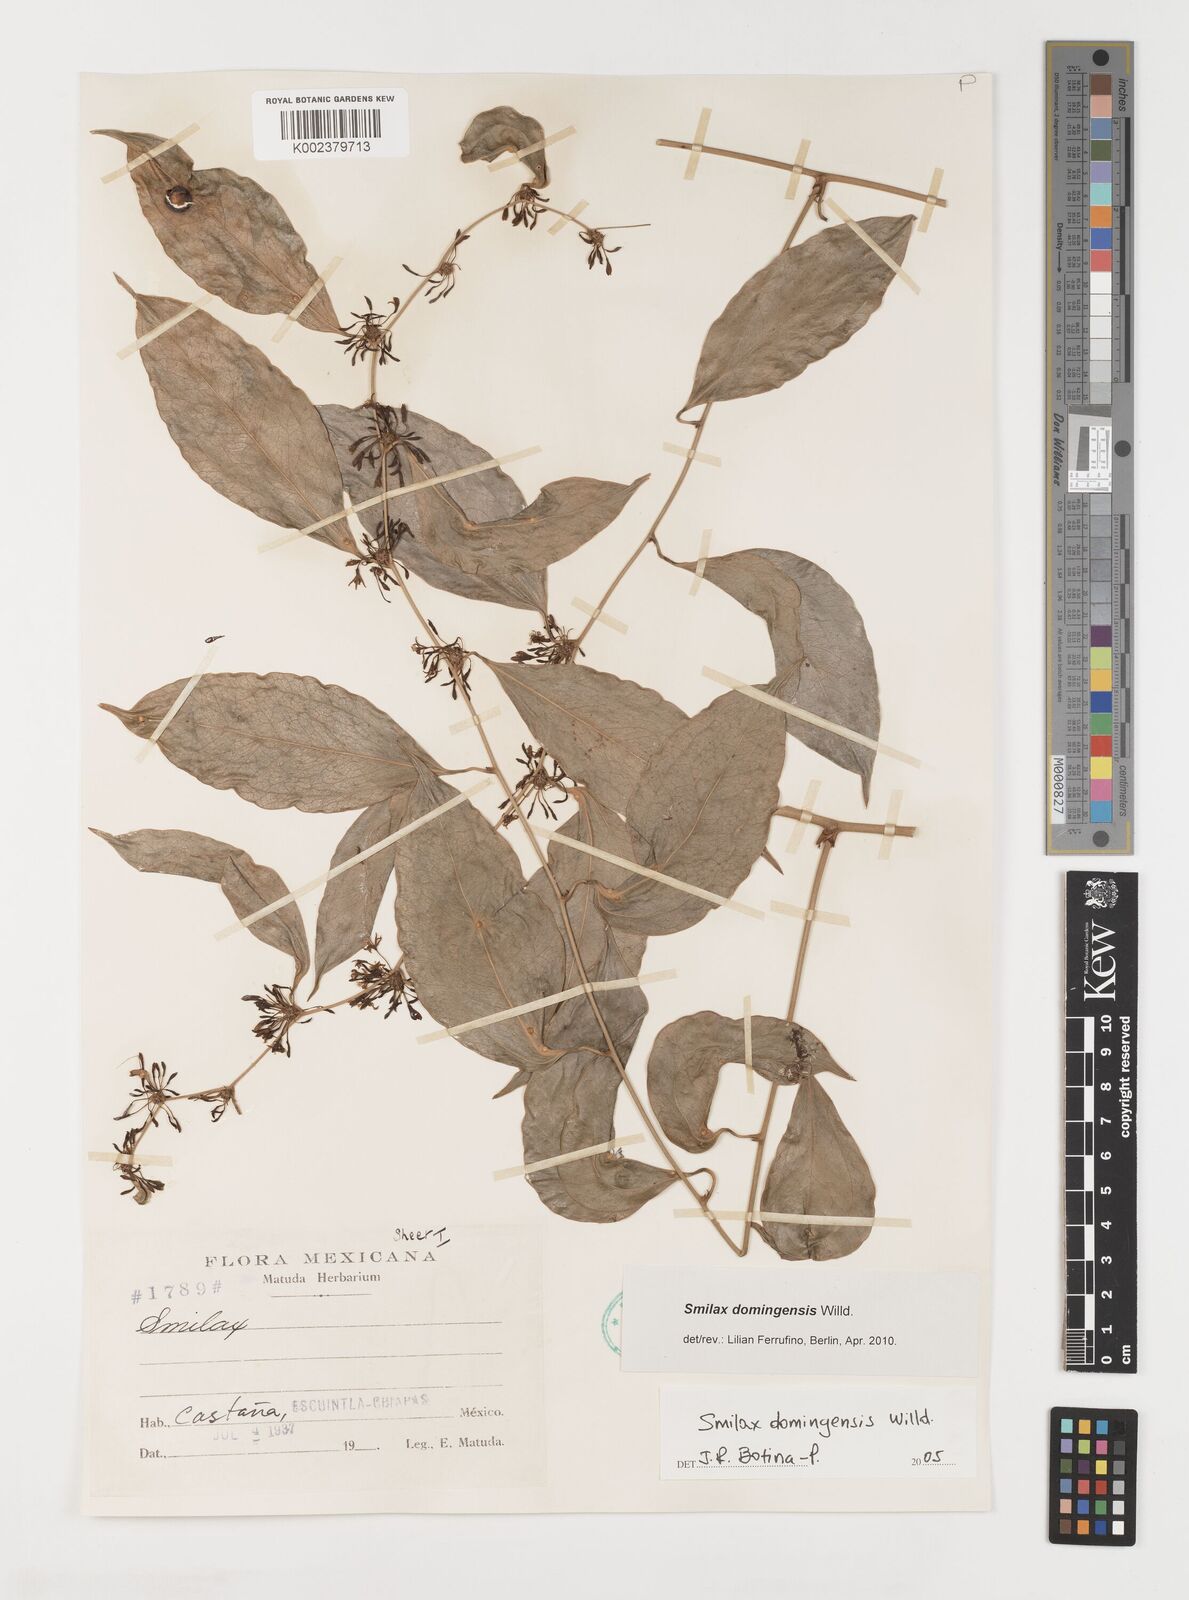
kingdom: Plantae
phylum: Tracheophyta
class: Liliopsida
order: Liliales
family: Smilacaceae
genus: Smilax
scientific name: Smilax domingensis
